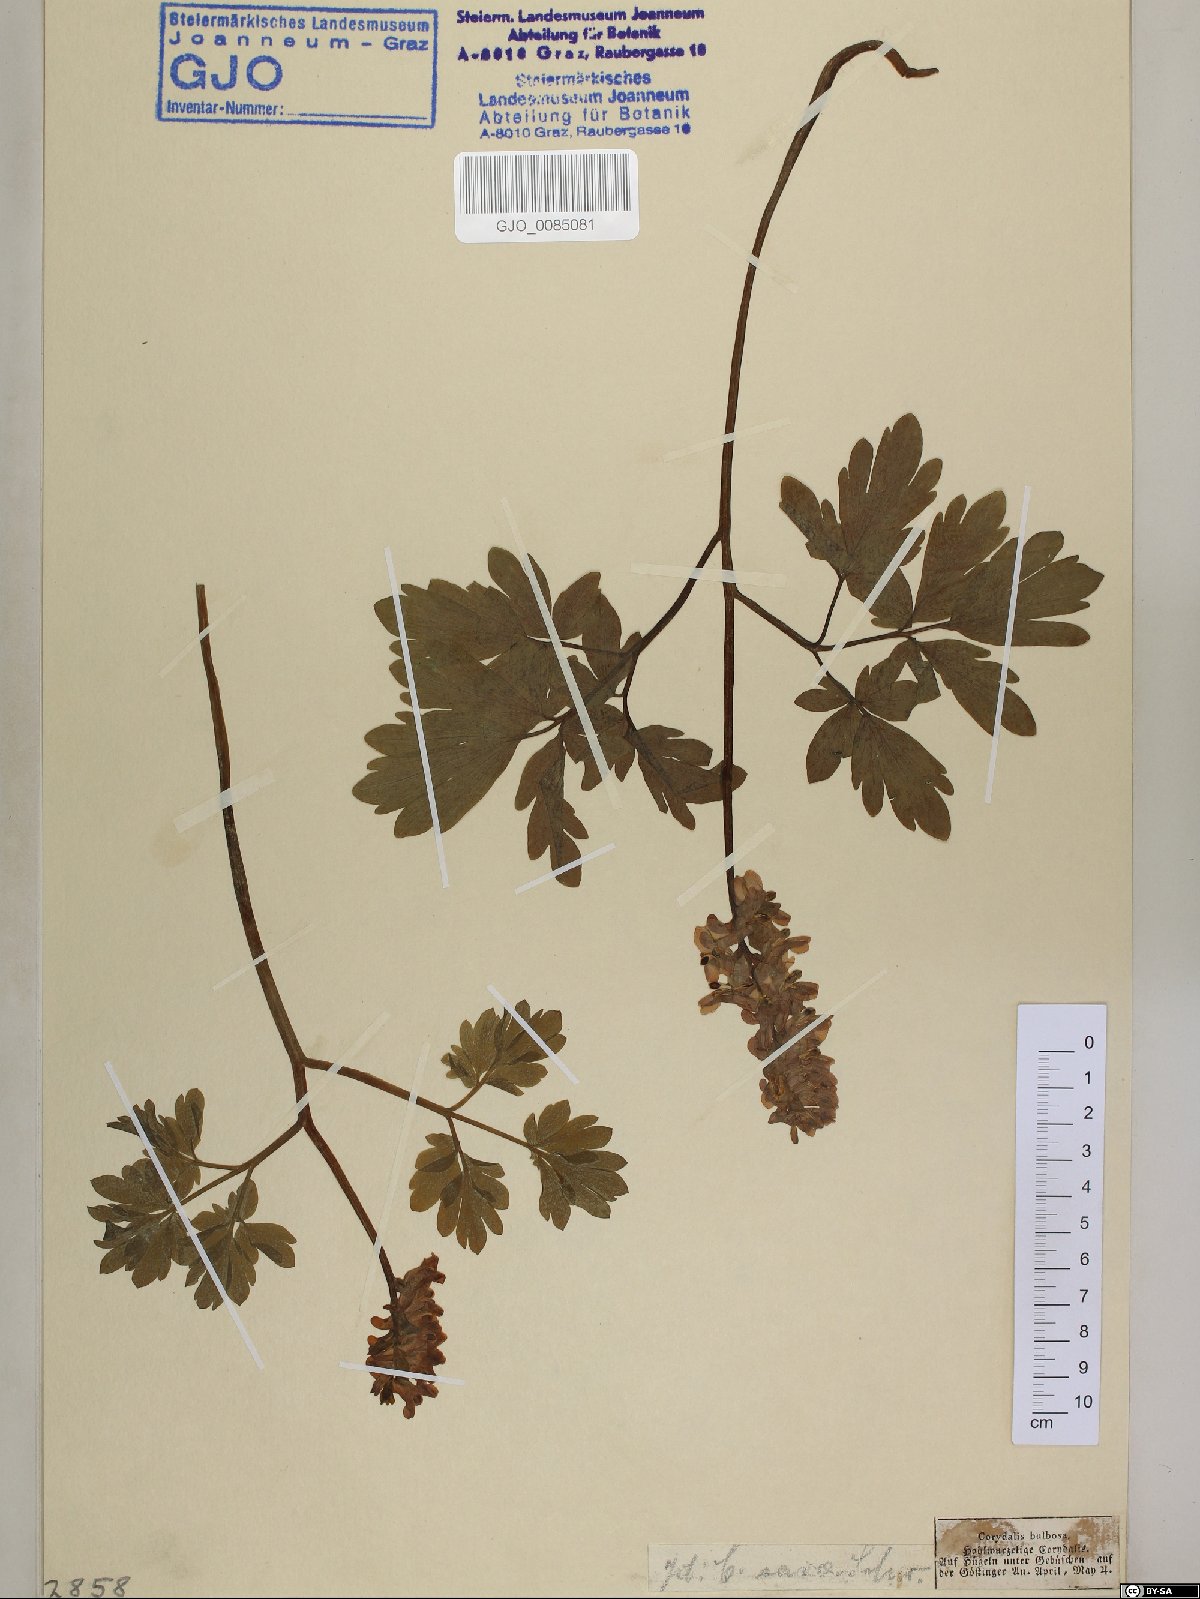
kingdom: Plantae
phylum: Tracheophyta
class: Magnoliopsida
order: Ranunculales
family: Papaveraceae
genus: Corydalis
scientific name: Corydalis cava
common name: Hollowroot
